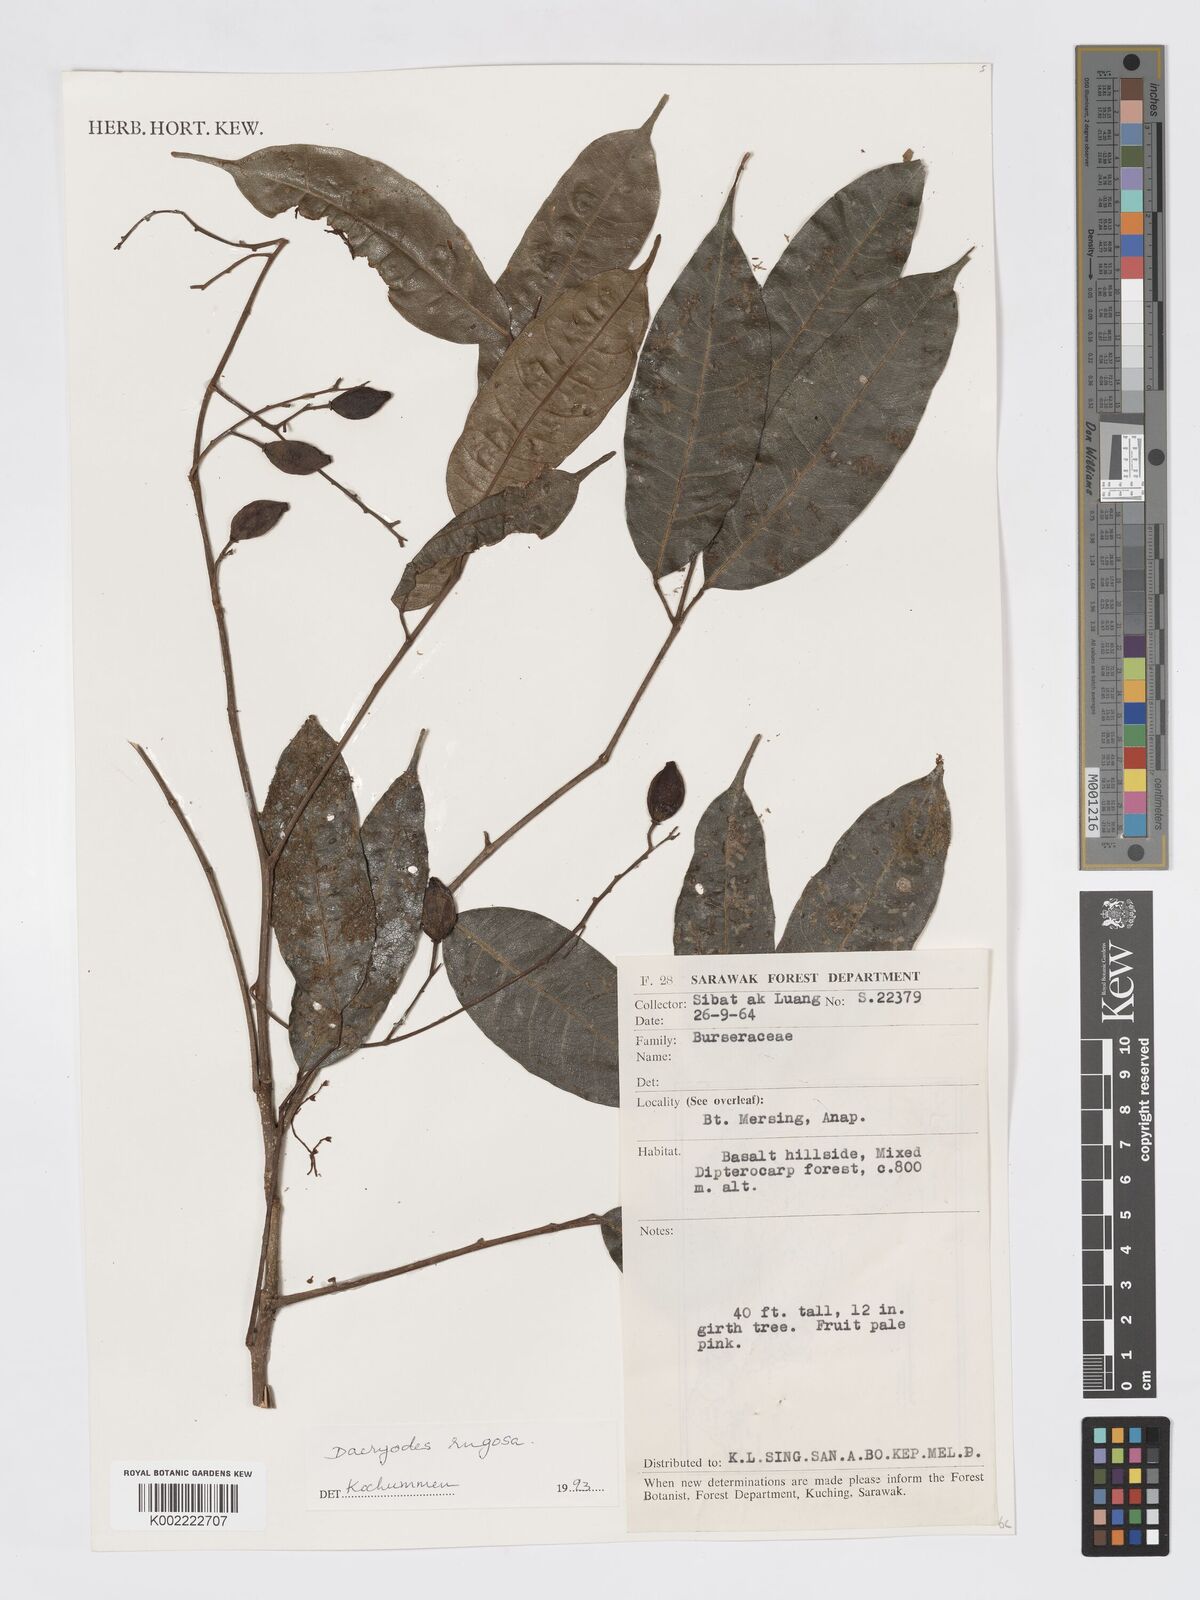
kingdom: Plantae
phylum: Tracheophyta
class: Magnoliopsida
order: Sapindales
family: Burseraceae
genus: Dacryodes
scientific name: Dacryodes rugosa
